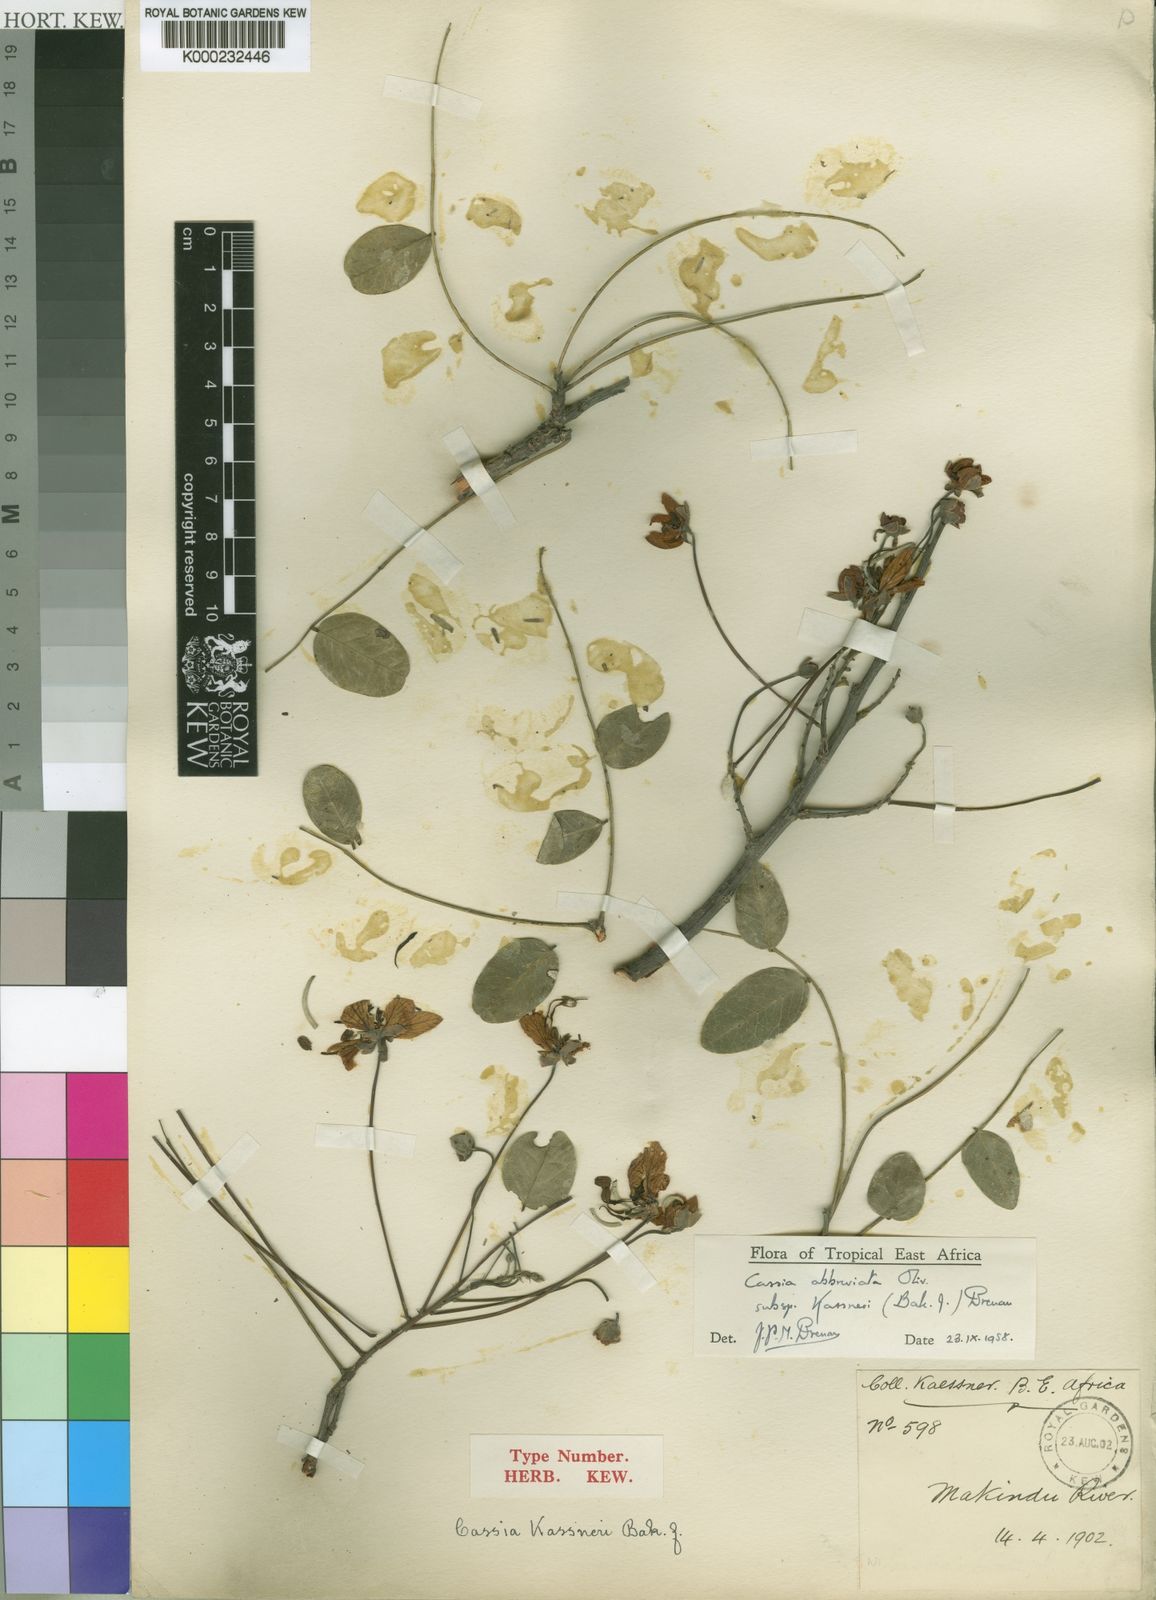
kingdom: Plantae
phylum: Tracheophyta
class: Magnoliopsida
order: Fabales
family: Fabaceae
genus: Cassia
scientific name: Cassia abbreviata
